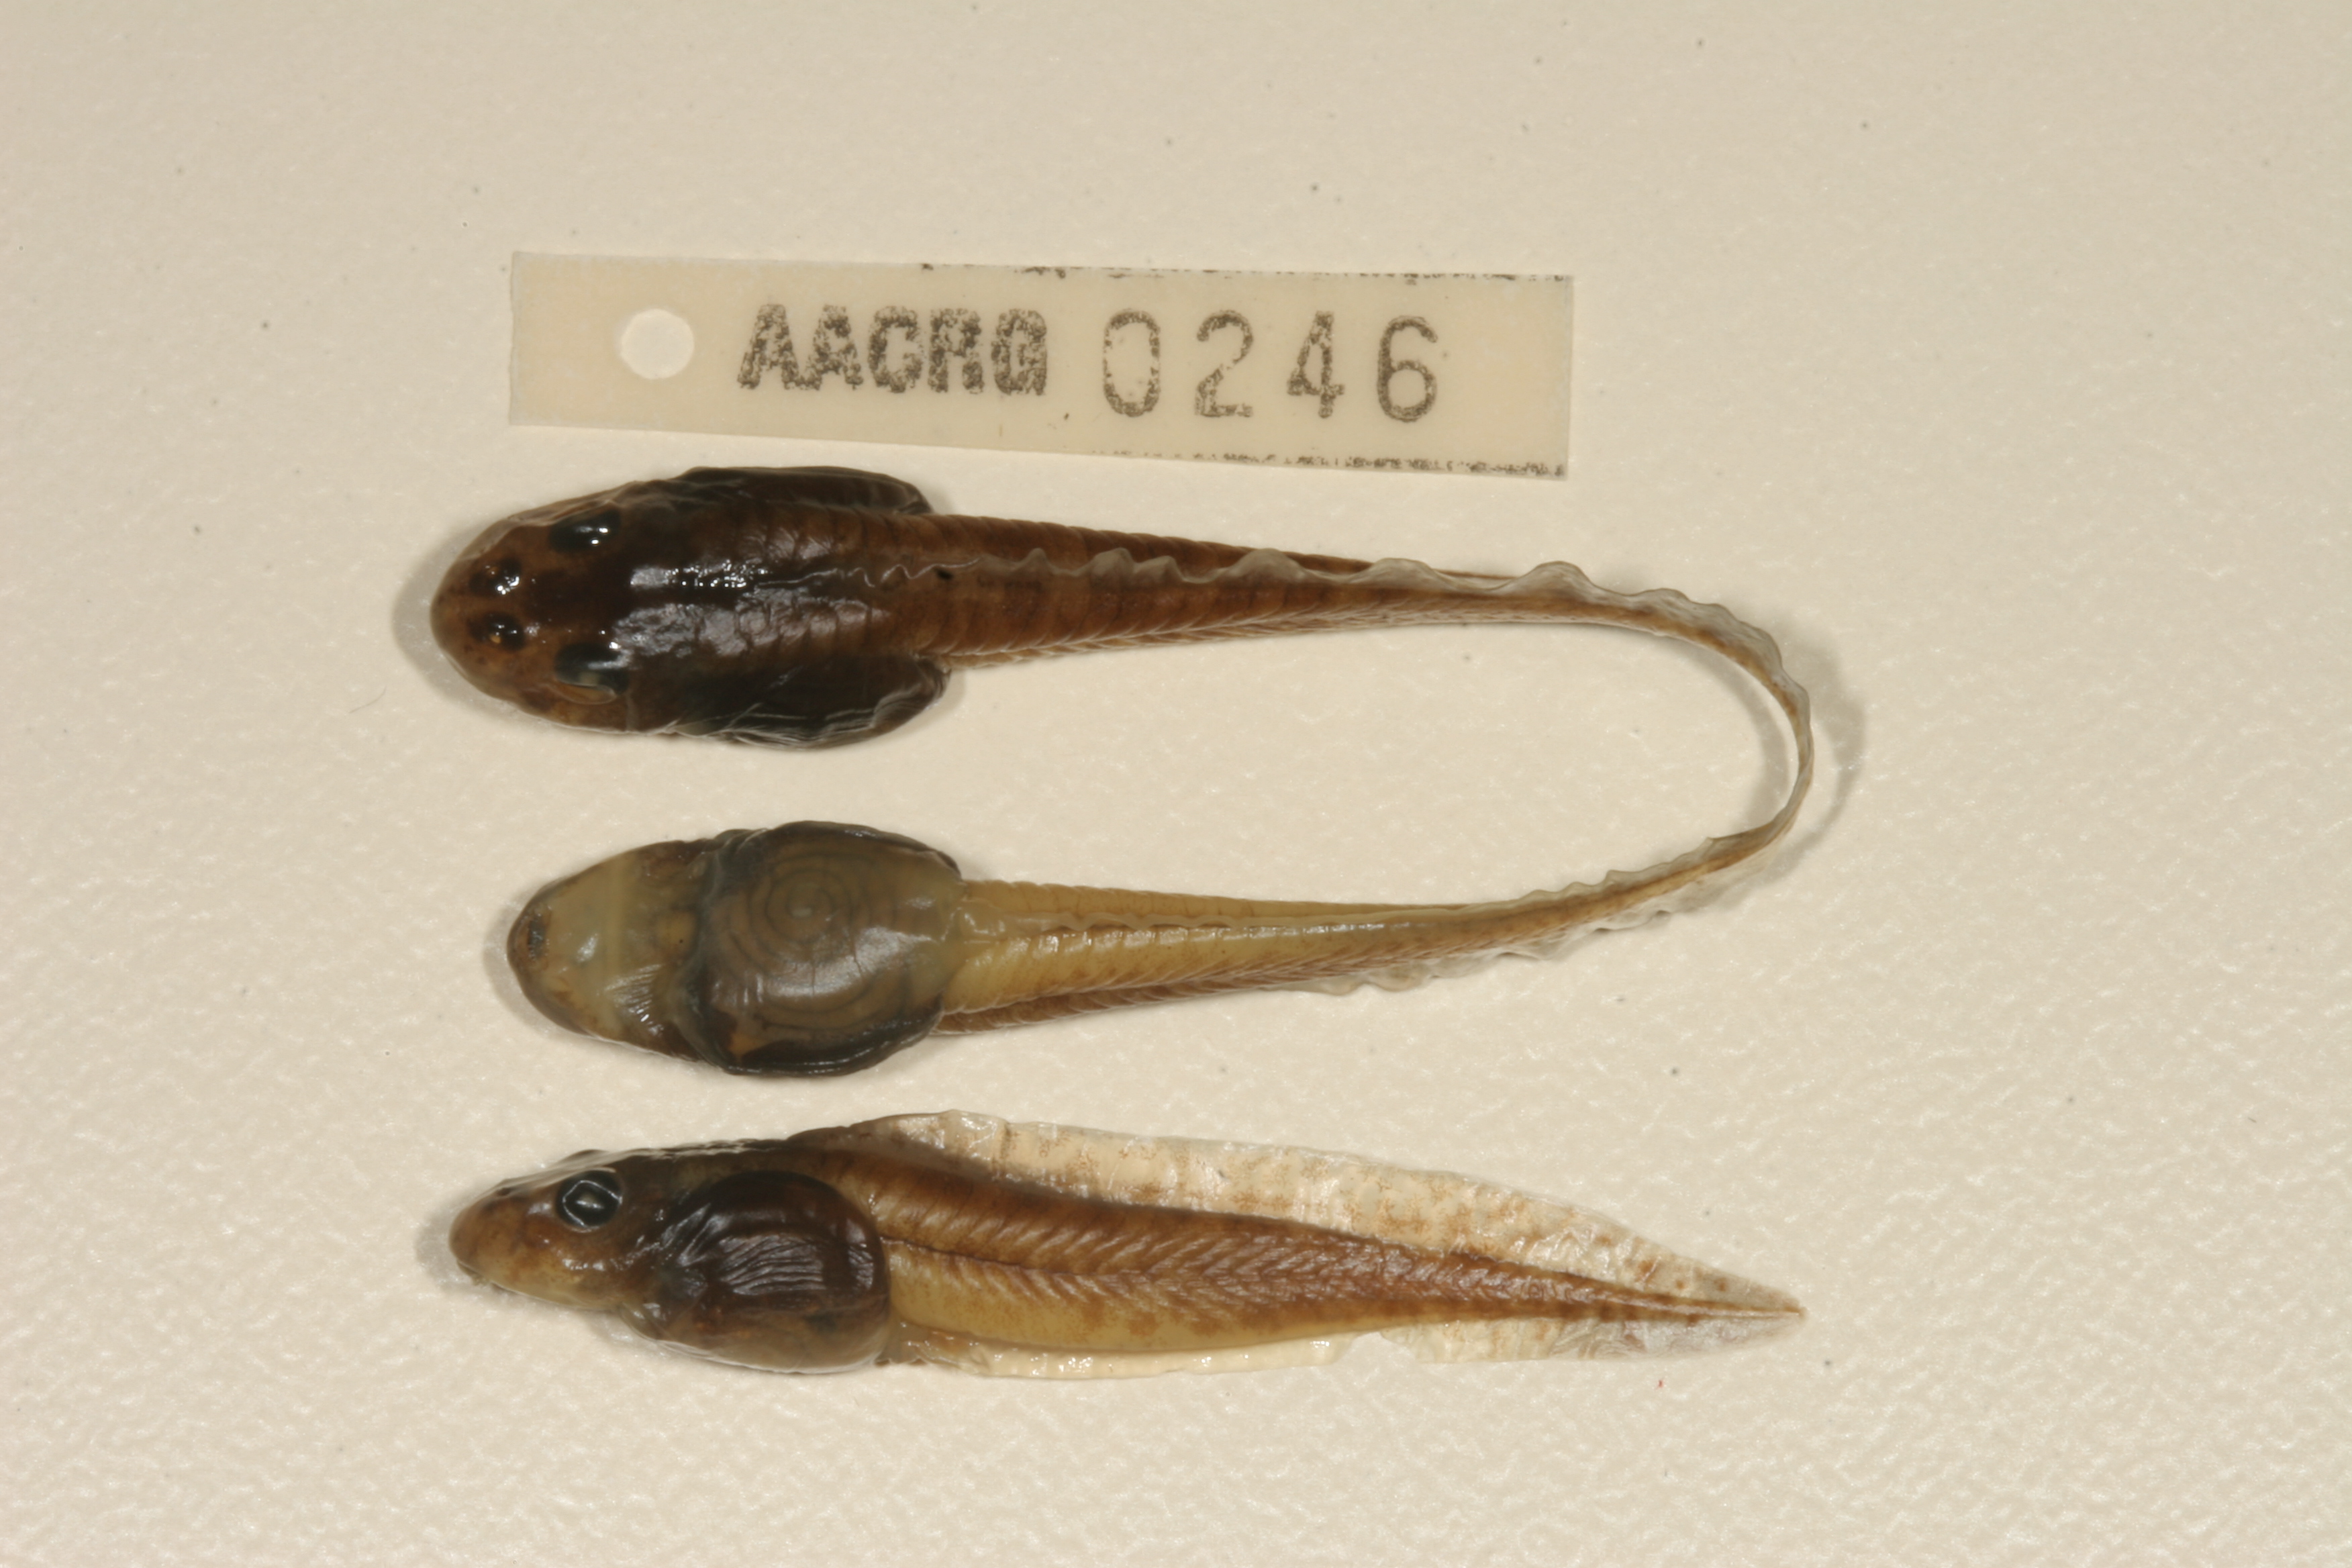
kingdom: Animalia
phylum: Chordata
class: Amphibia
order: Anura
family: Pyxicephalidae
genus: Amietia
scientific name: Amietia fuscigula
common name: Cape rana
